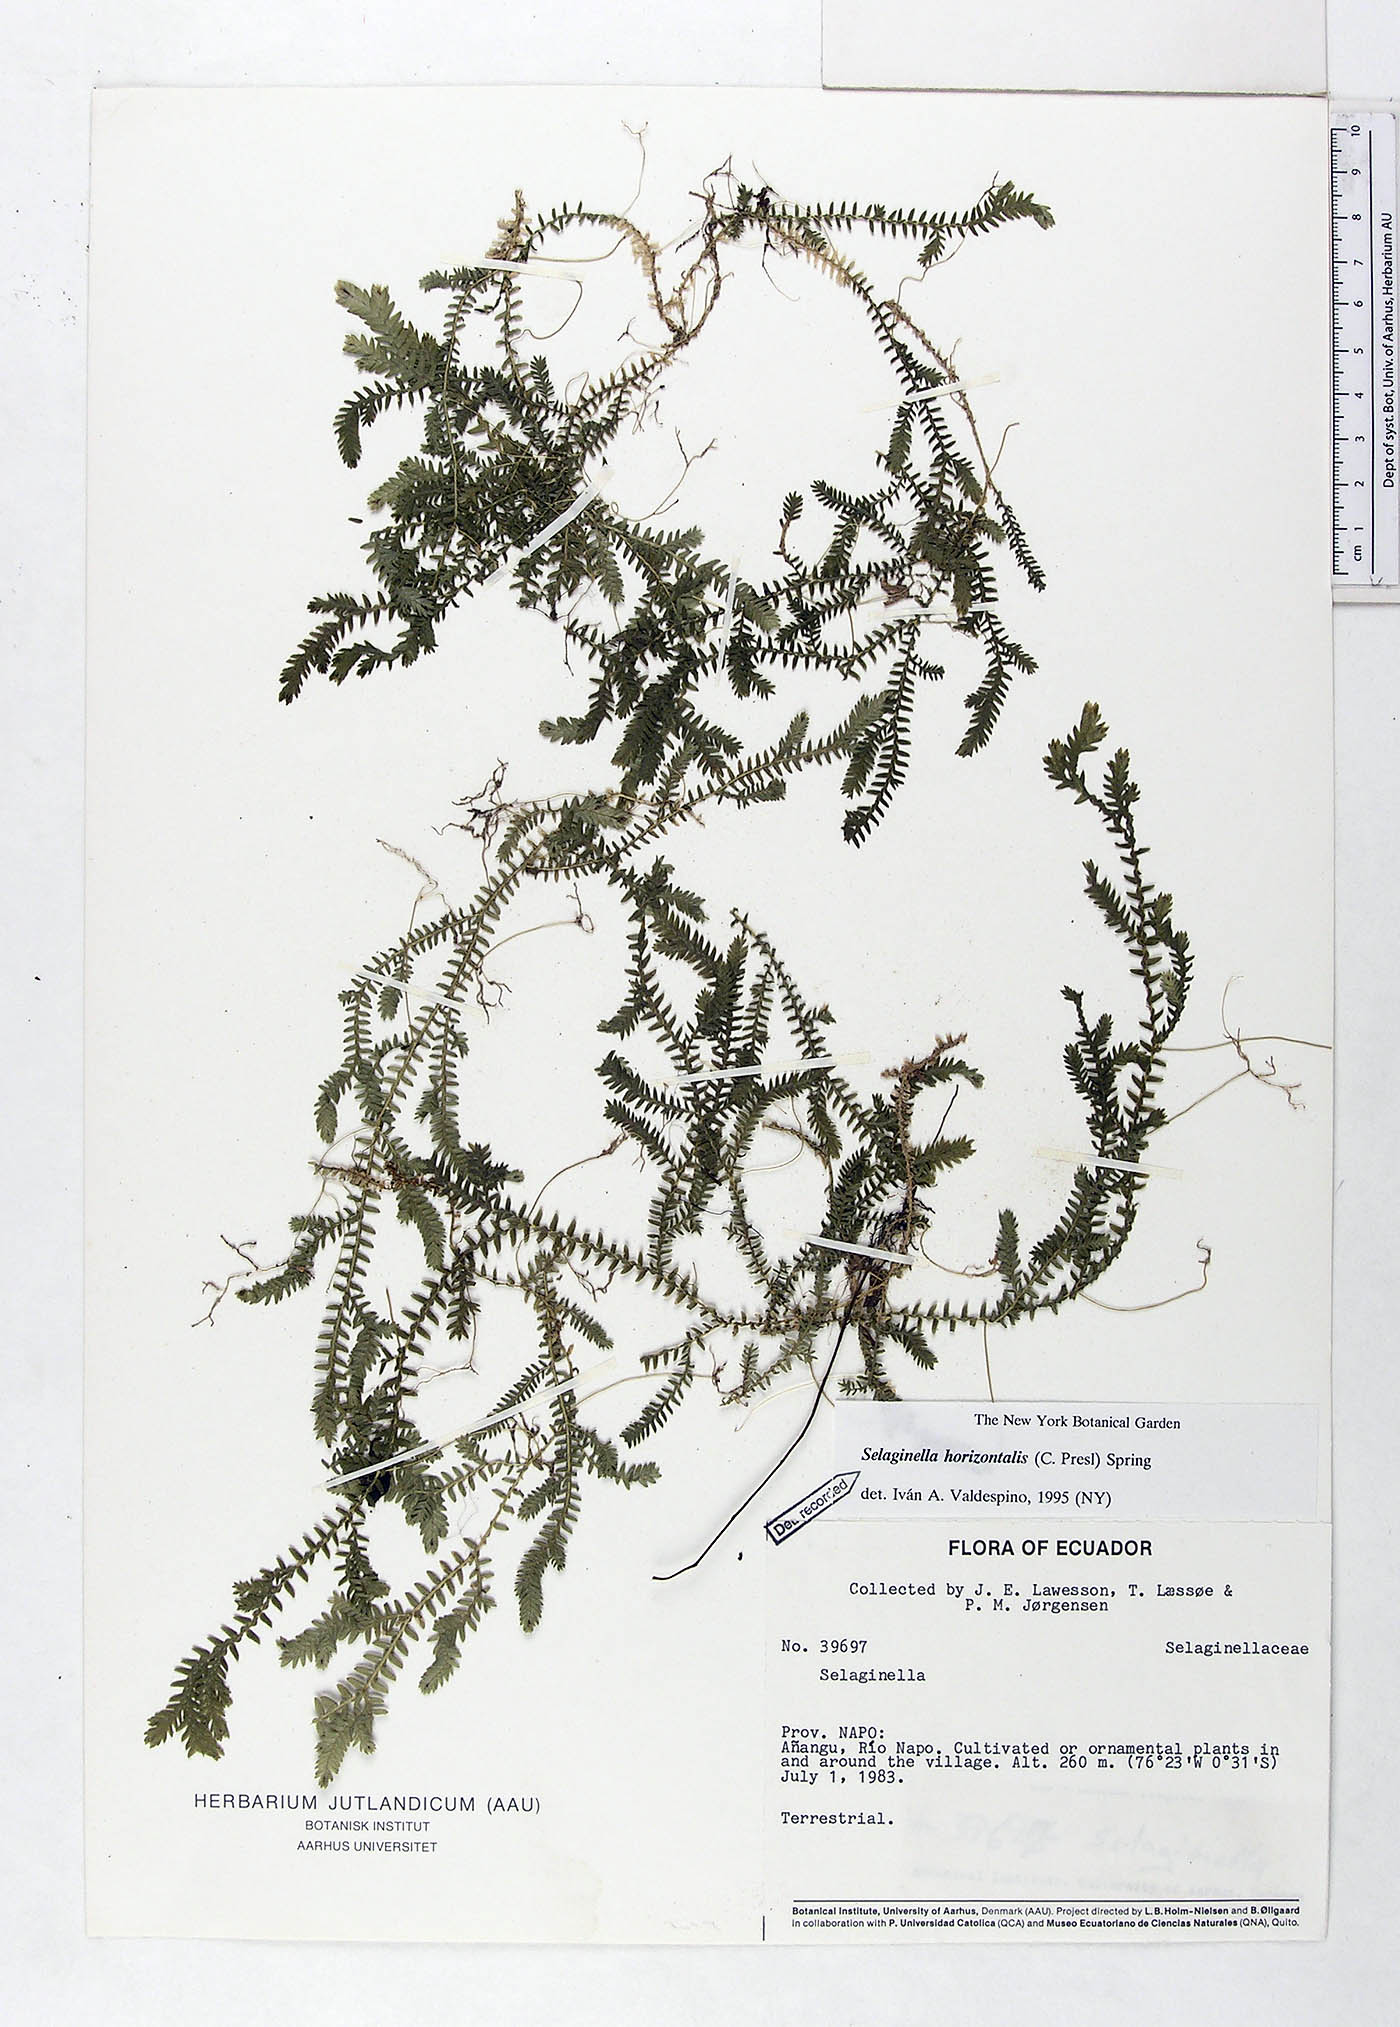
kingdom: Plantae
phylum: Tracheophyta
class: Lycopodiopsida
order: Selaginellales
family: Selaginellaceae
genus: Selaginella
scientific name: Selaginella horizontalis
